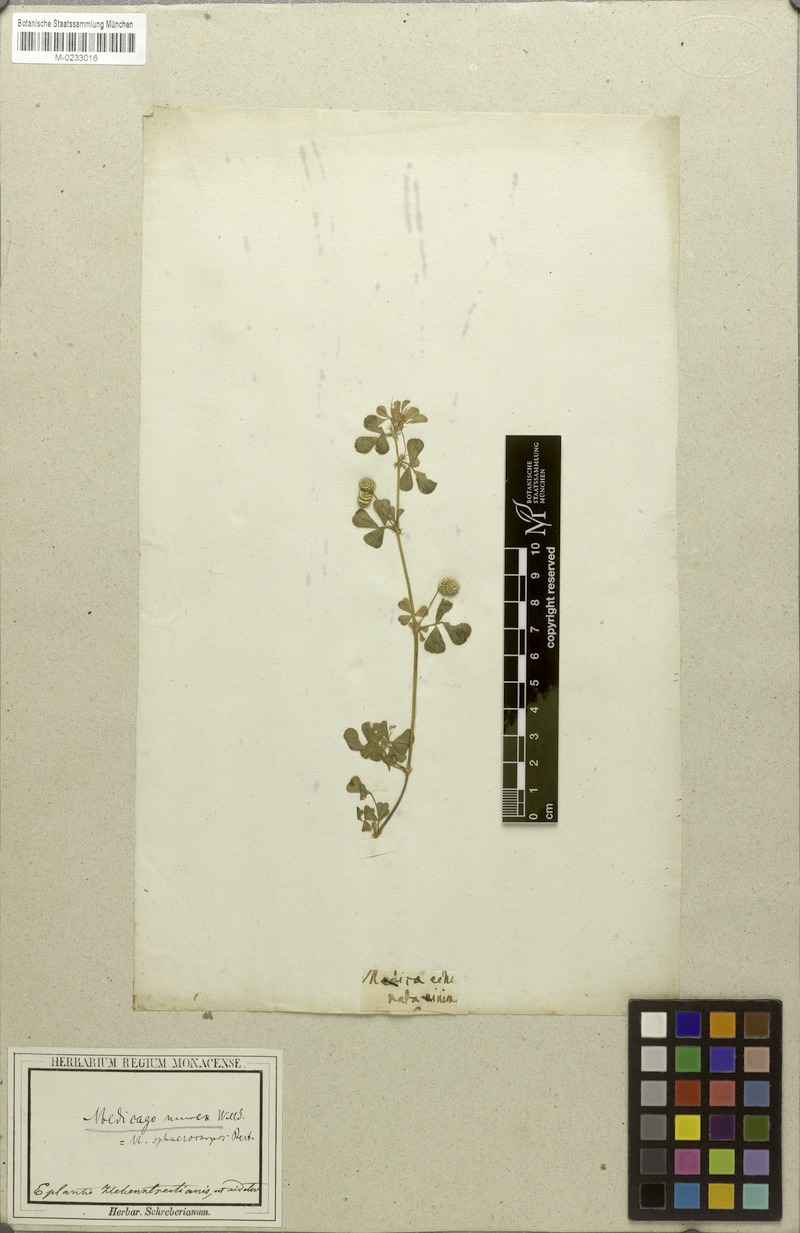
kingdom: Plantae
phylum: Tracheophyta
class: Magnoliopsida
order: Fabales
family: Fabaceae
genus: Medicago
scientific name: Medicago murex
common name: Murex
